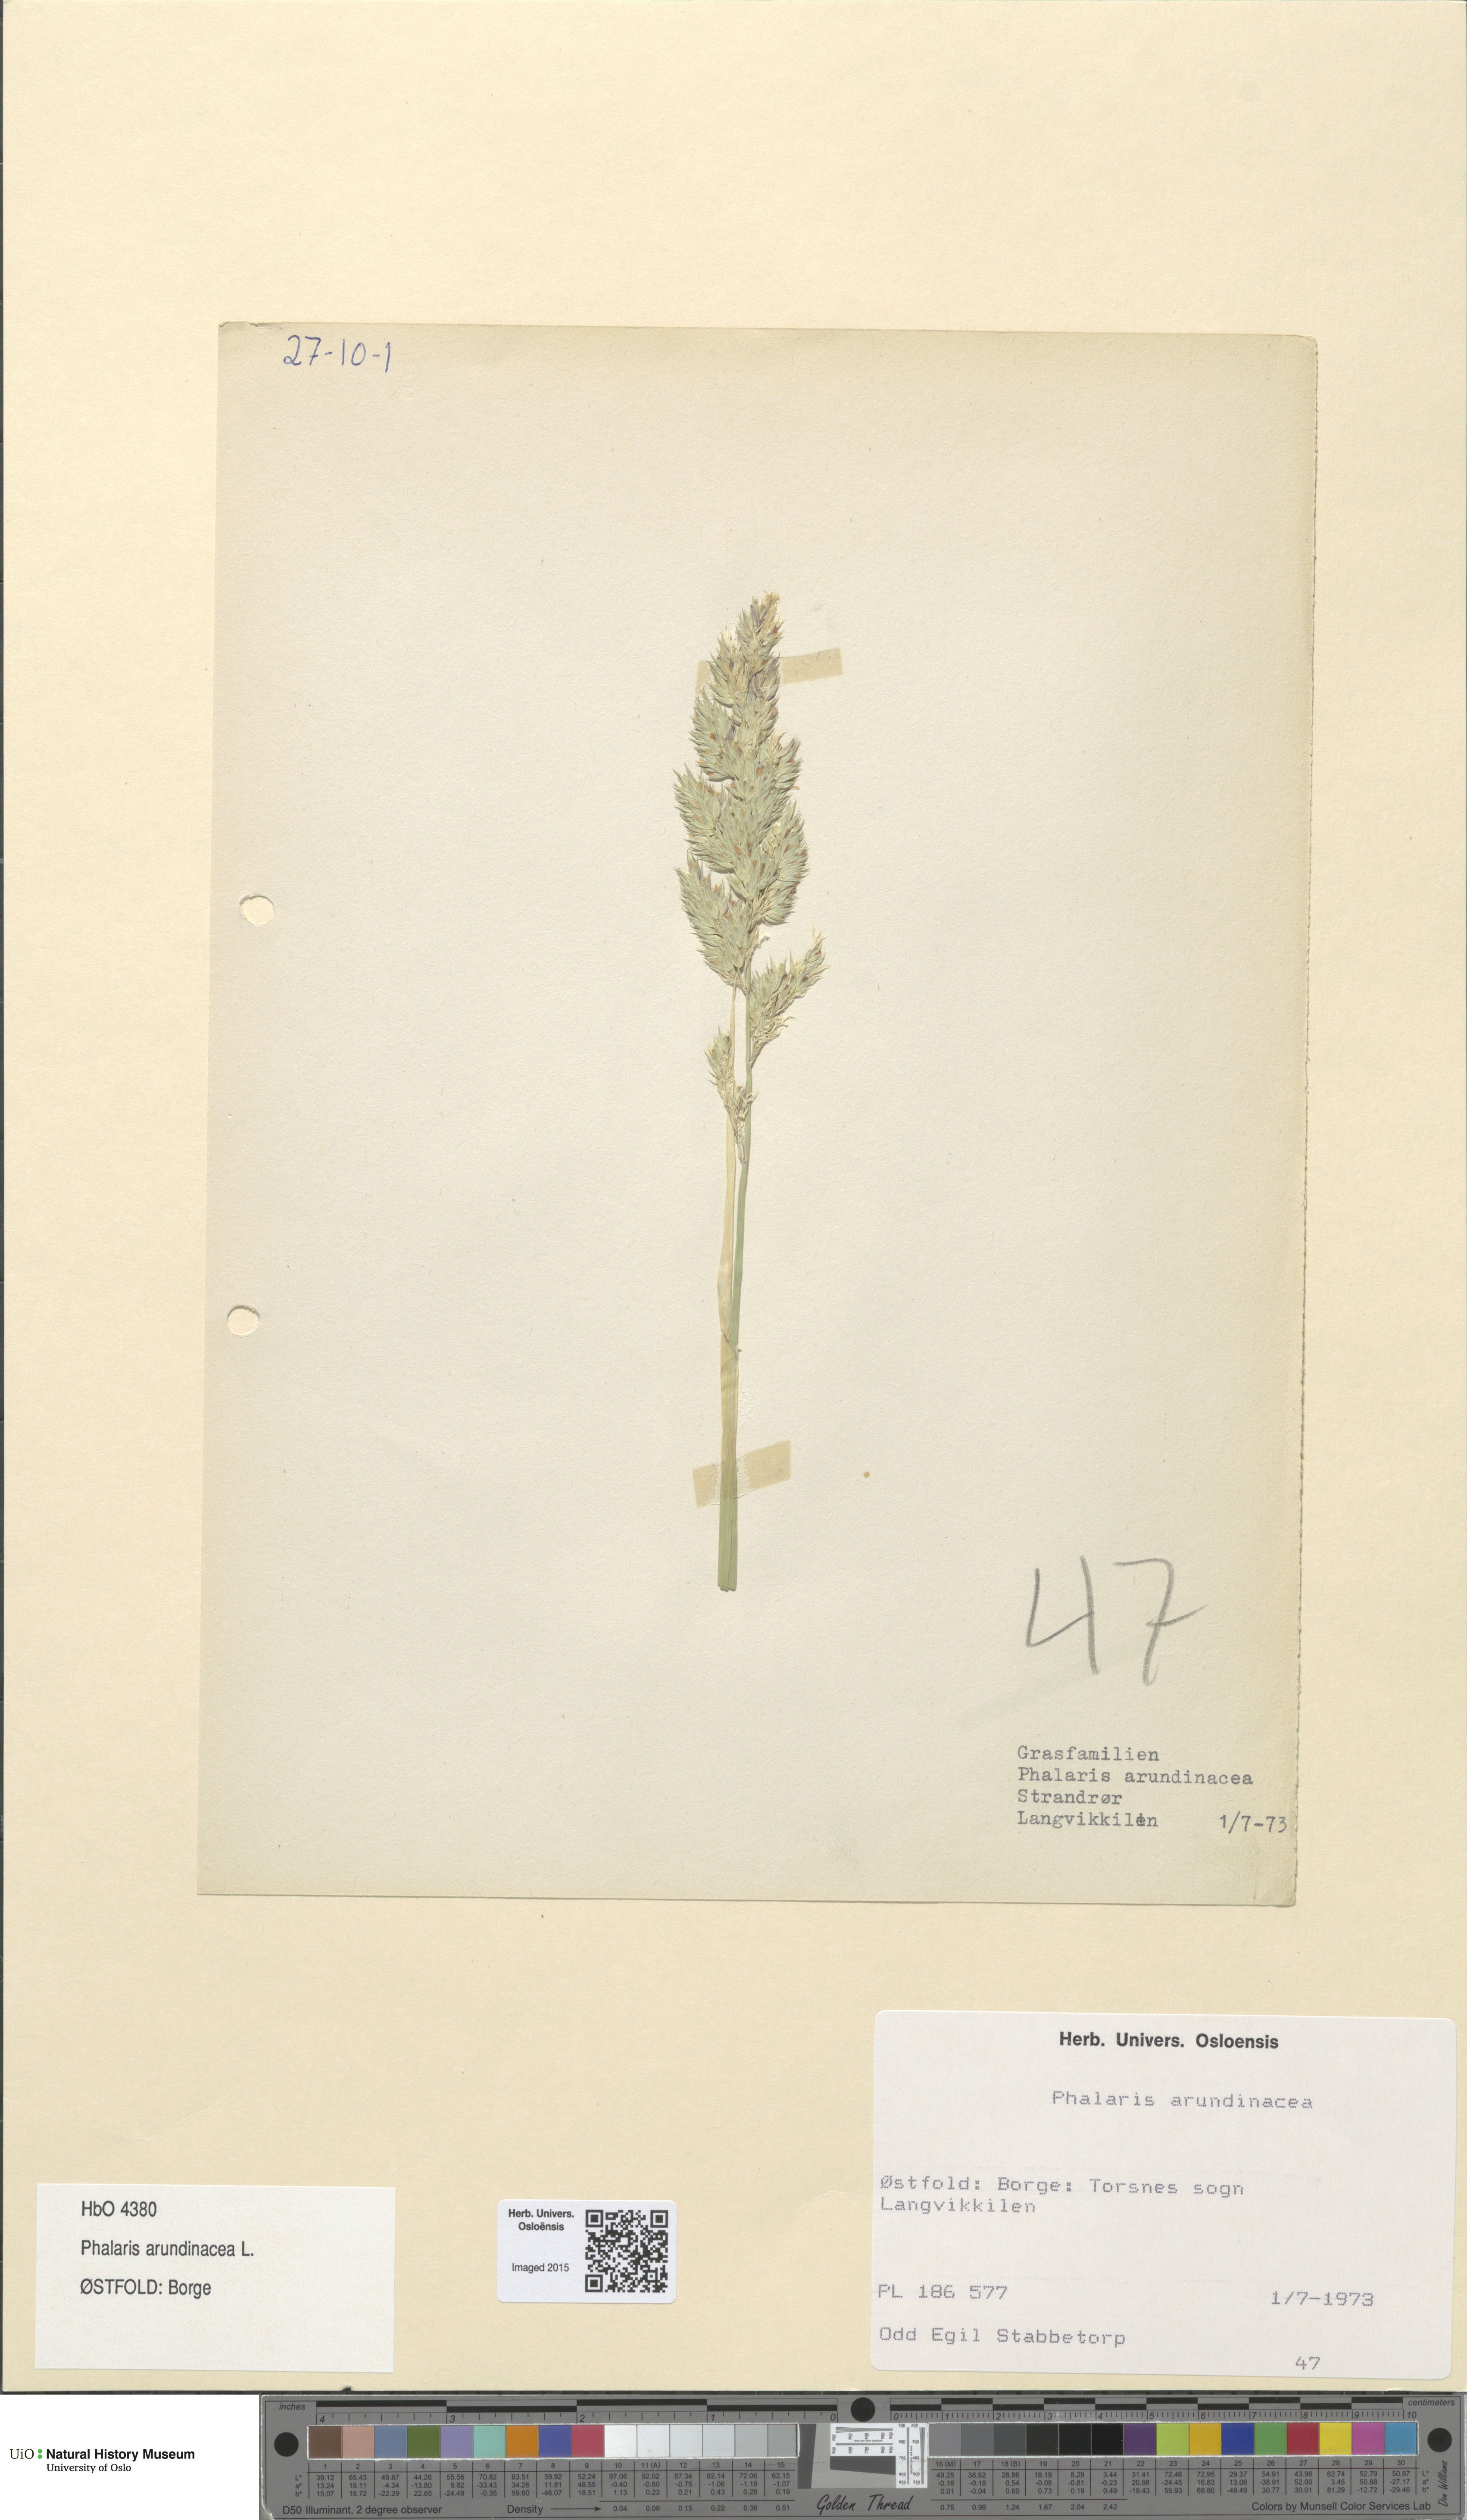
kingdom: Plantae
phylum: Tracheophyta
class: Liliopsida
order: Poales
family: Poaceae
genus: Phalaris
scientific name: Phalaris arundinacea
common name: Reed canary-grass
